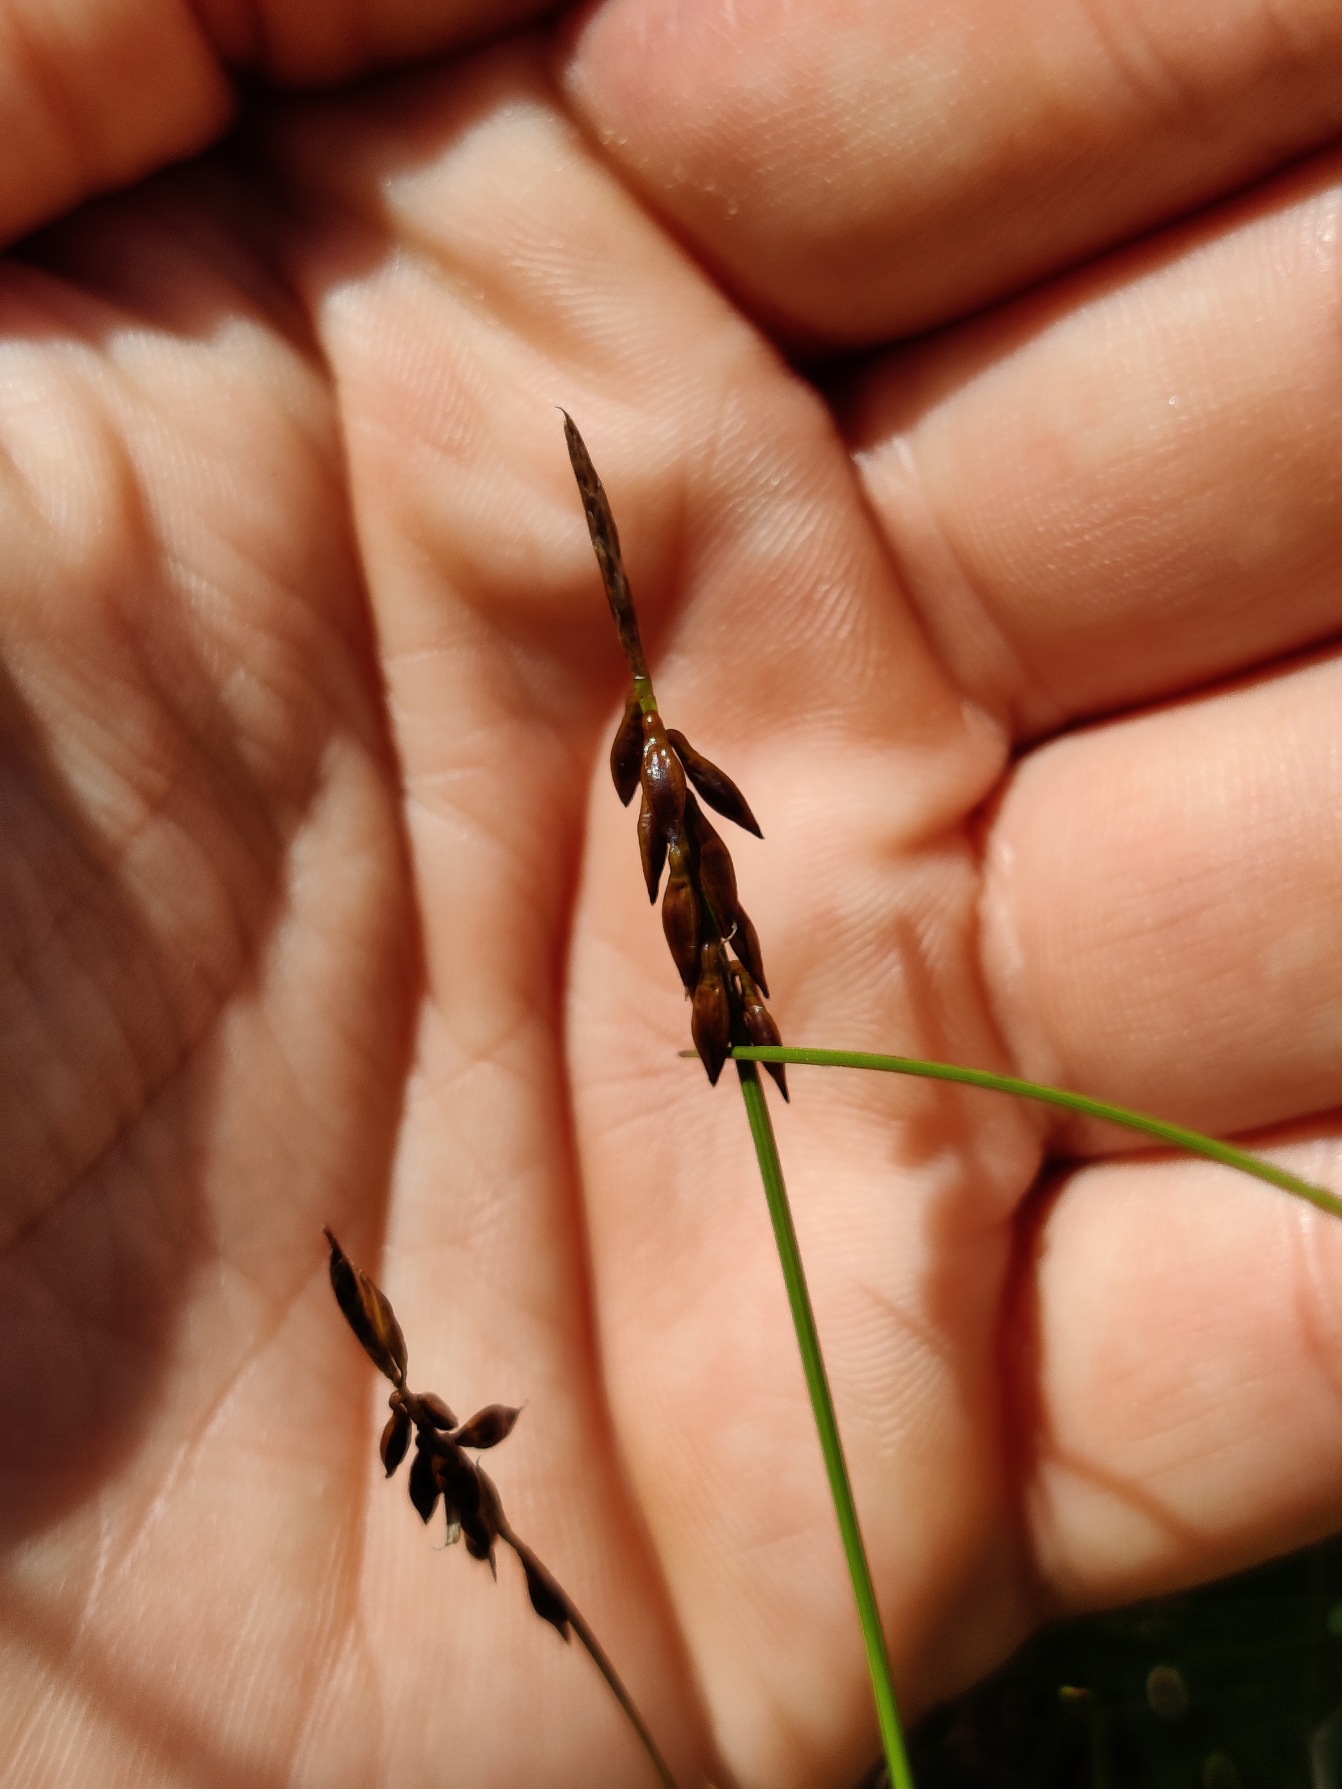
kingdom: Plantae
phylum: Tracheophyta
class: Liliopsida
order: Poales
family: Cyperaceae
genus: Carex
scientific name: Carex pulicaris
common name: Loppe-star
